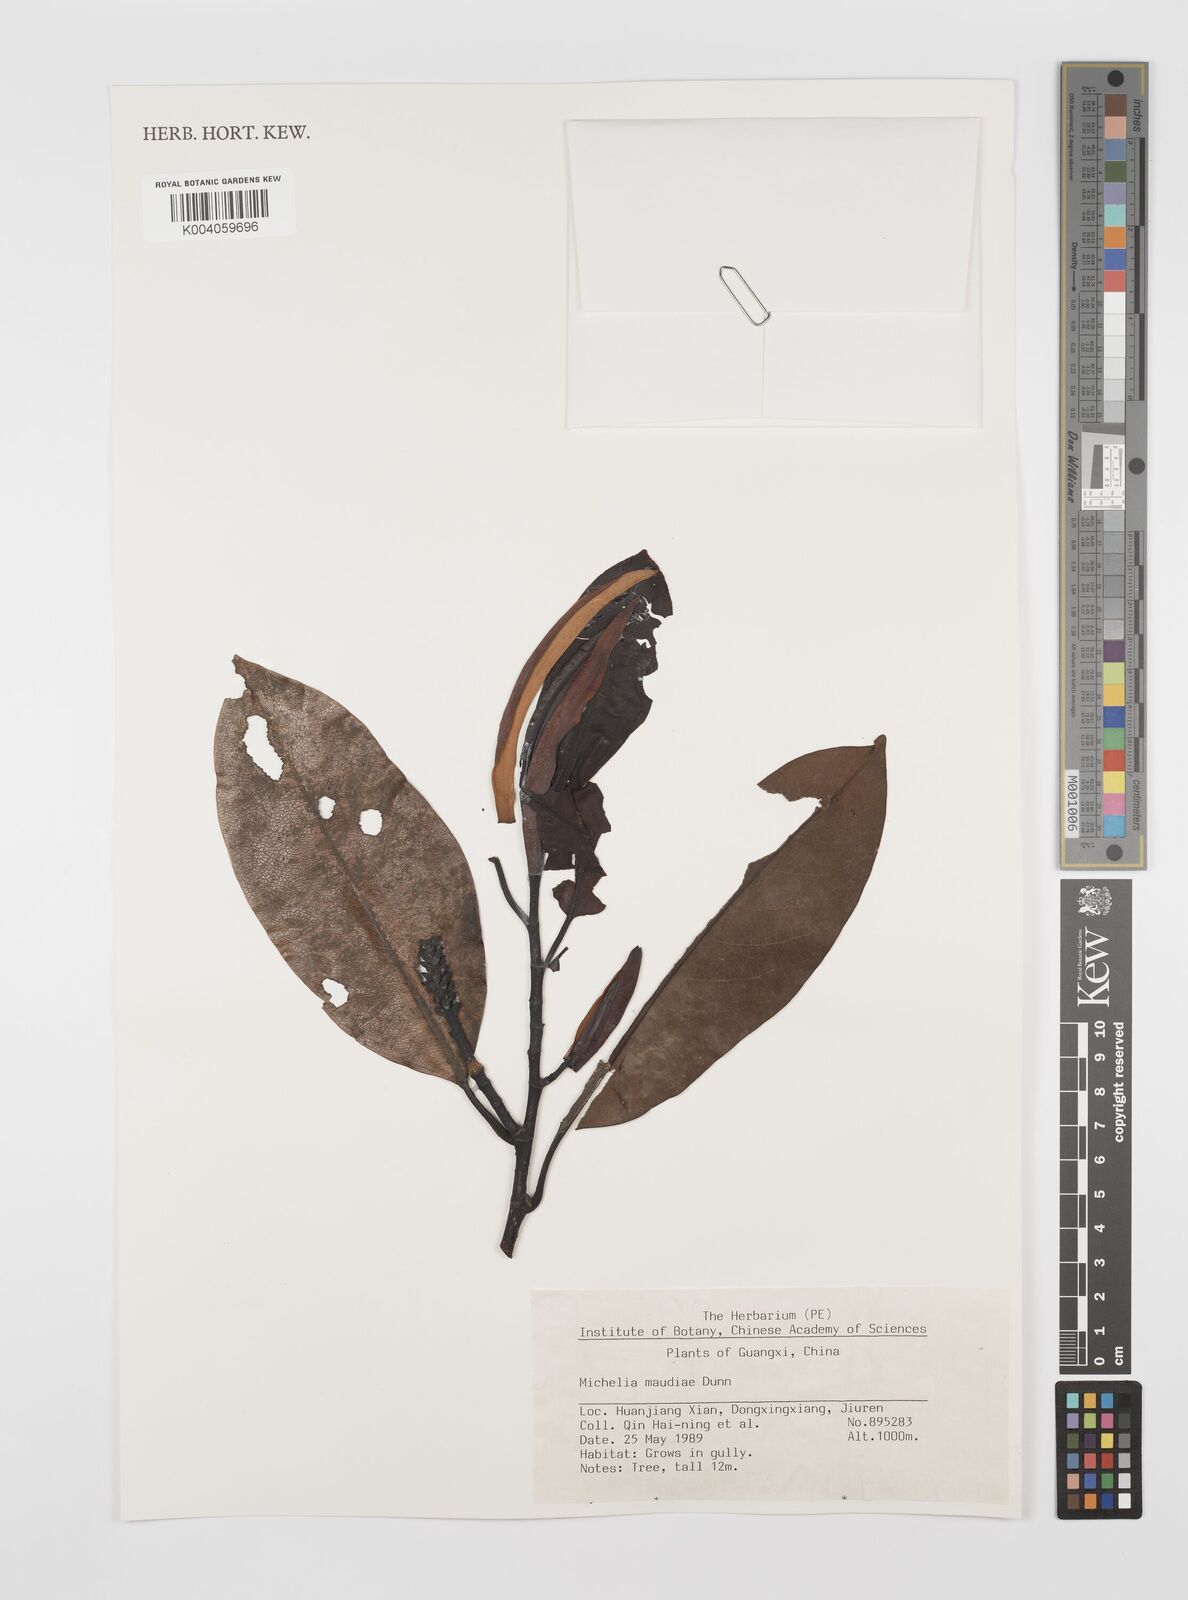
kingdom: Plantae
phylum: Tracheophyta
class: Magnoliopsida
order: Magnoliales
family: Magnoliaceae
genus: Magnolia
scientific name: Magnolia maudiae
